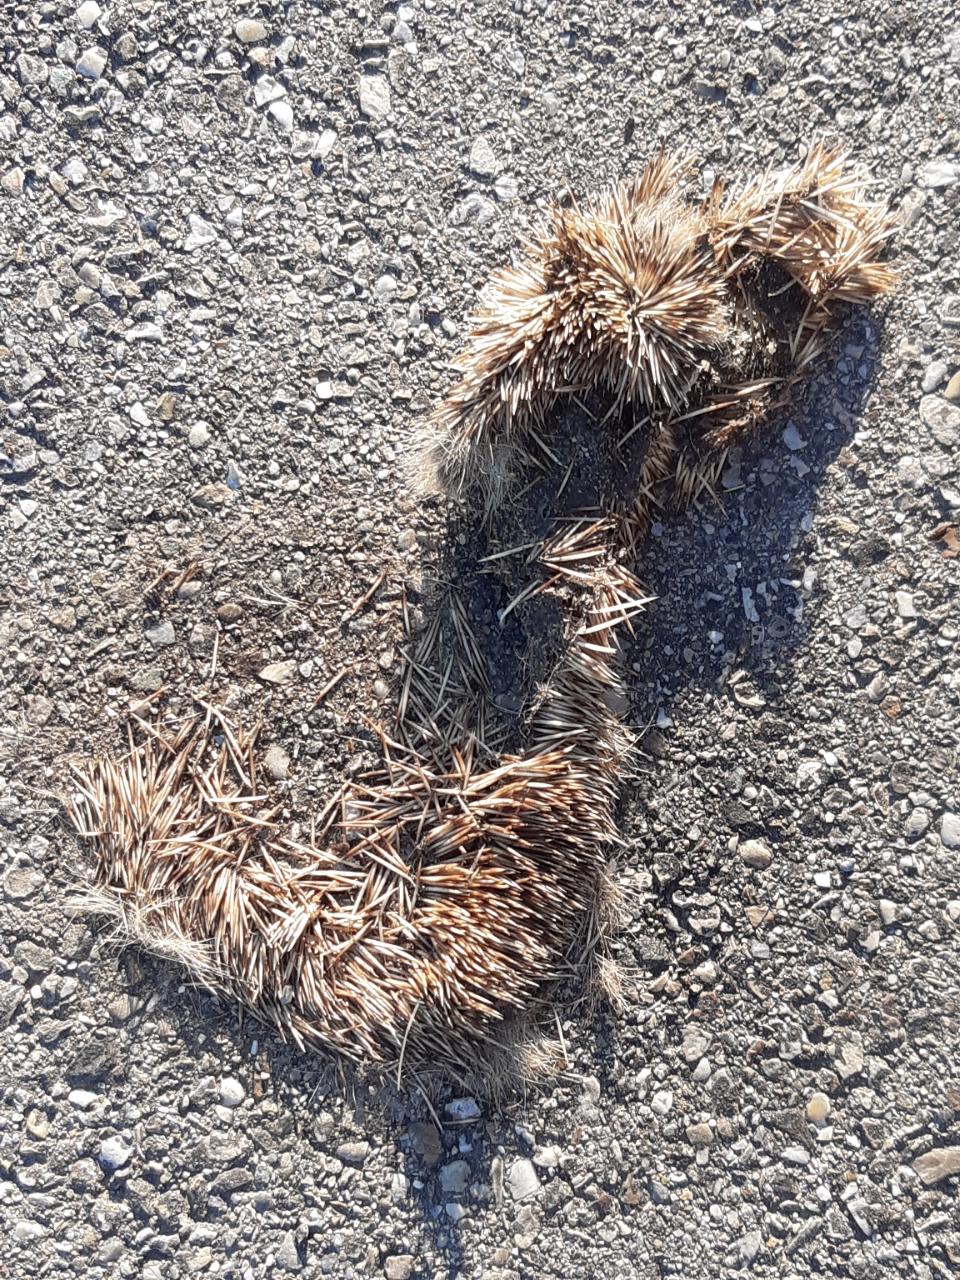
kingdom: Animalia
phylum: Chordata
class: Mammalia
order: Erinaceomorpha
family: Erinaceidae
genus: Erinaceus
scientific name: Erinaceus
